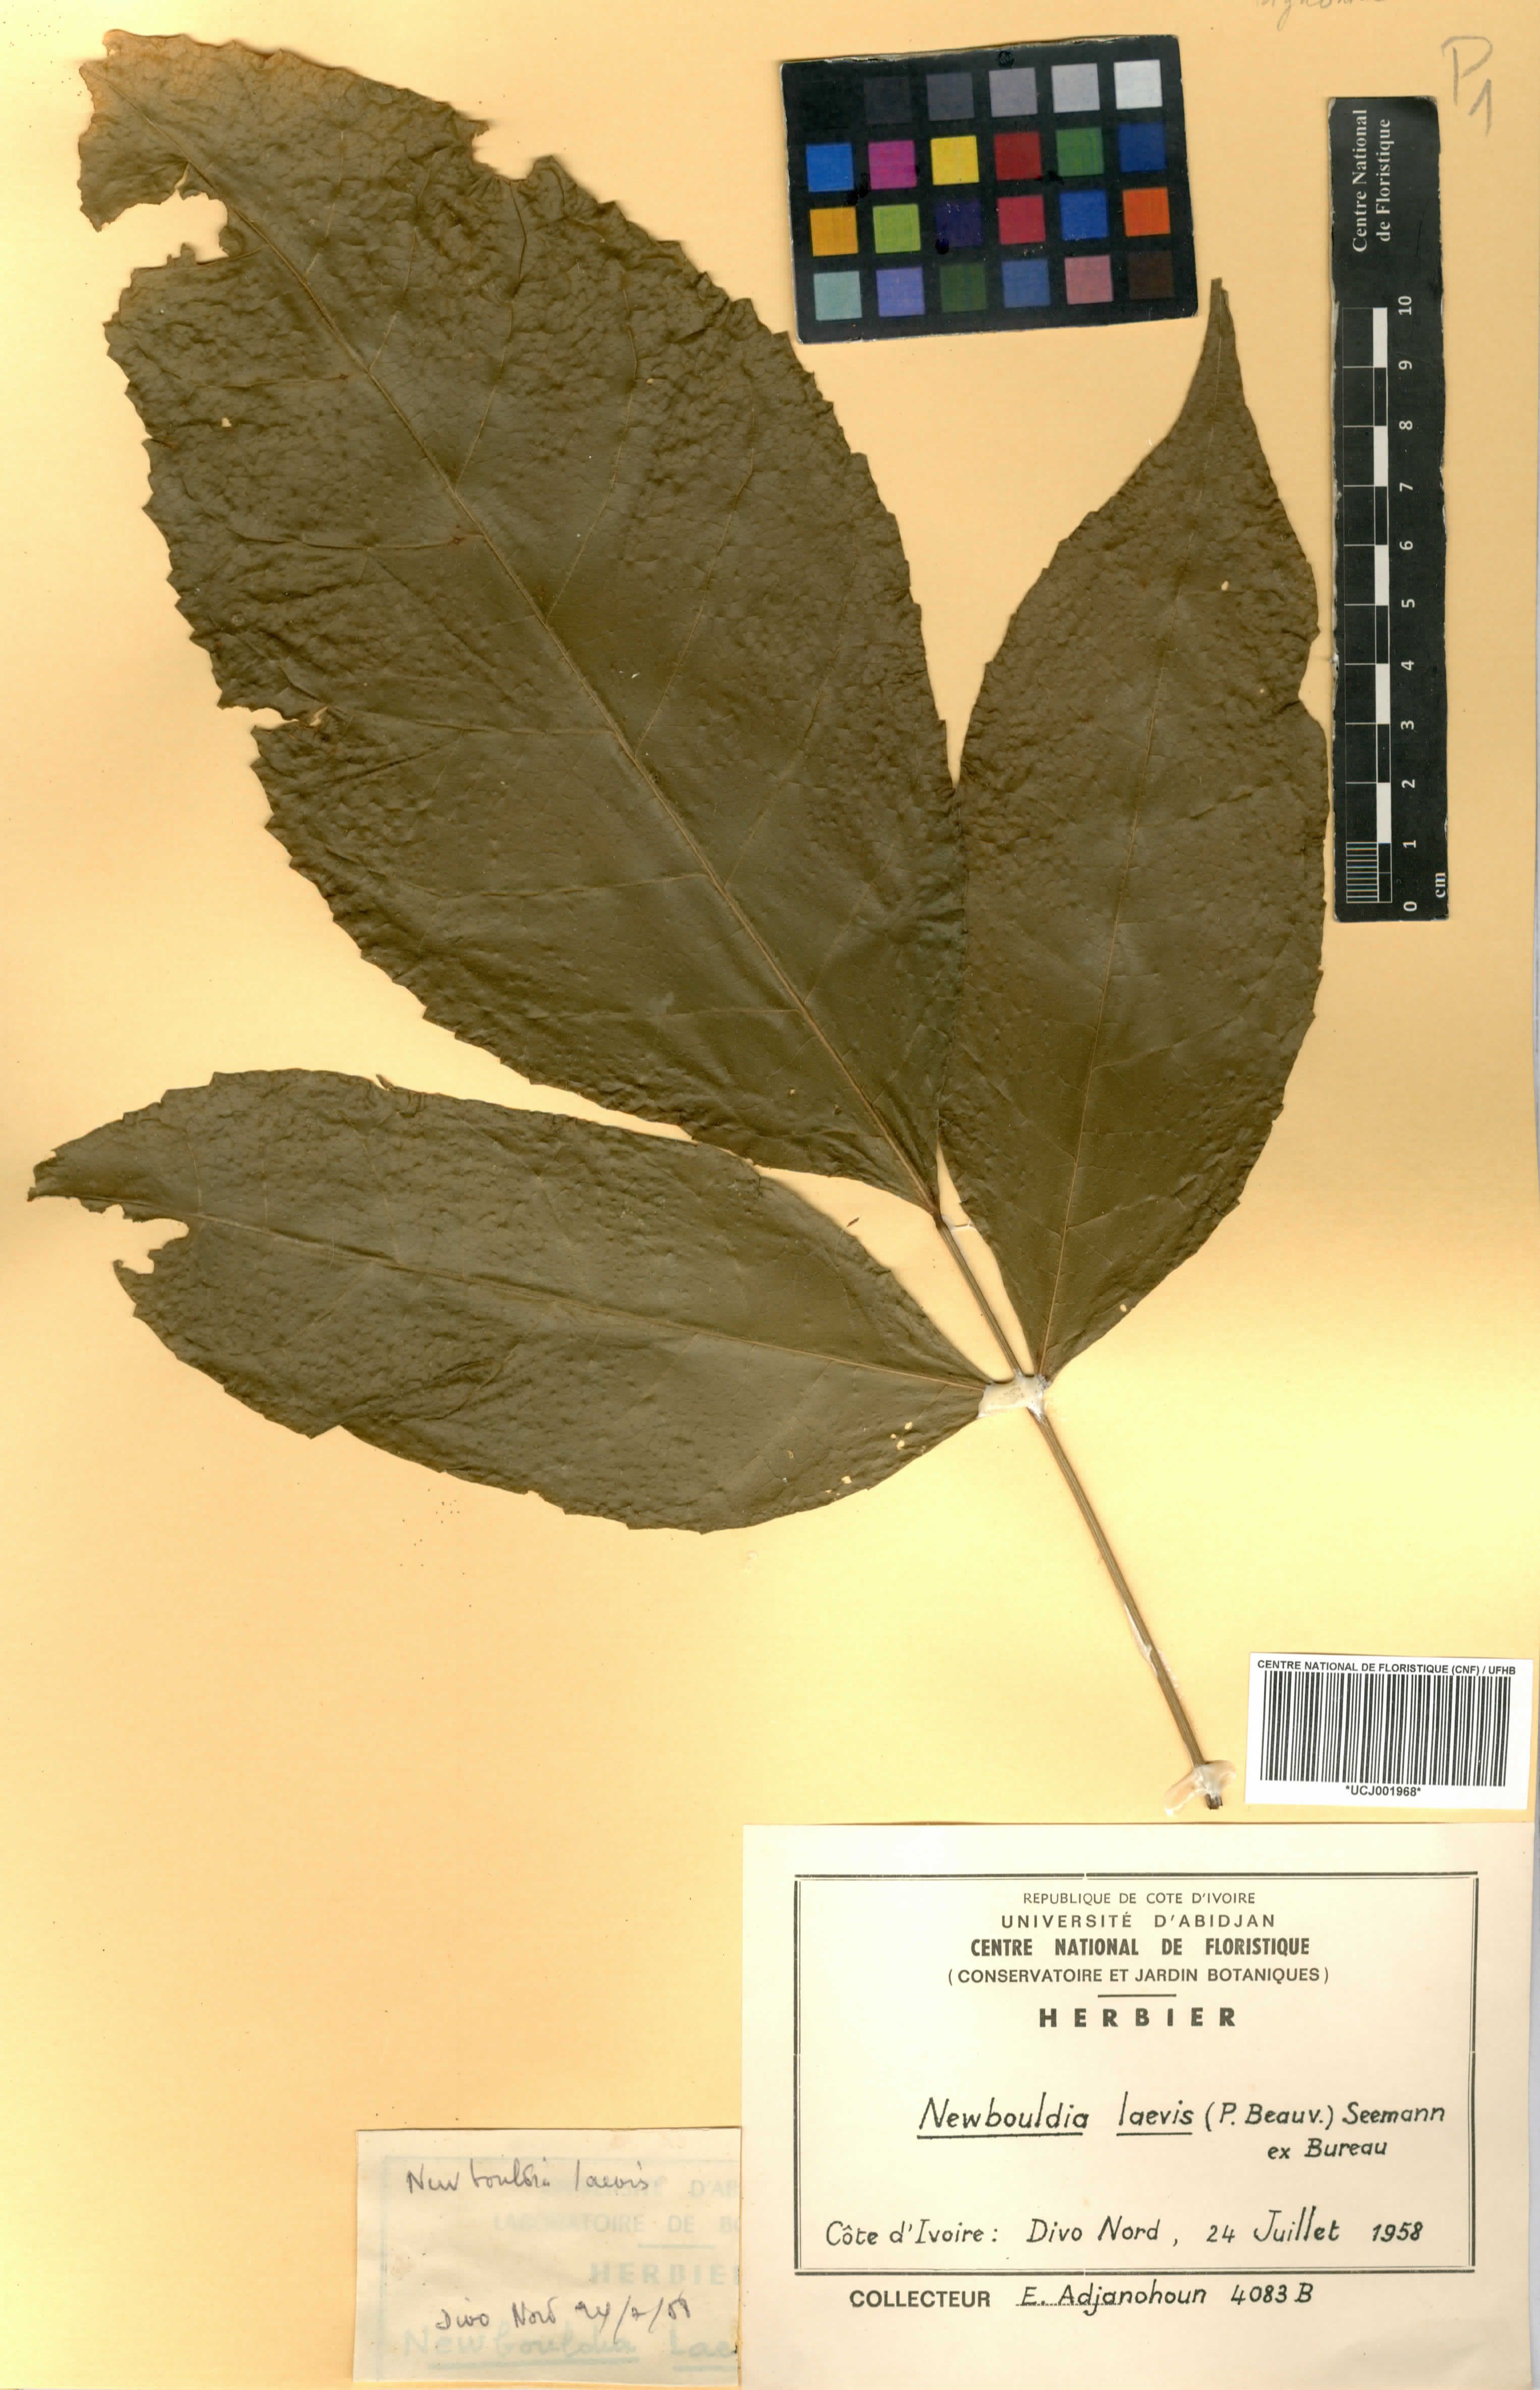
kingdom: Plantae
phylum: Tracheophyta
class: Magnoliopsida
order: Lamiales
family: Bignoniaceae
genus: Newbouldia
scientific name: Newbouldia laevis
